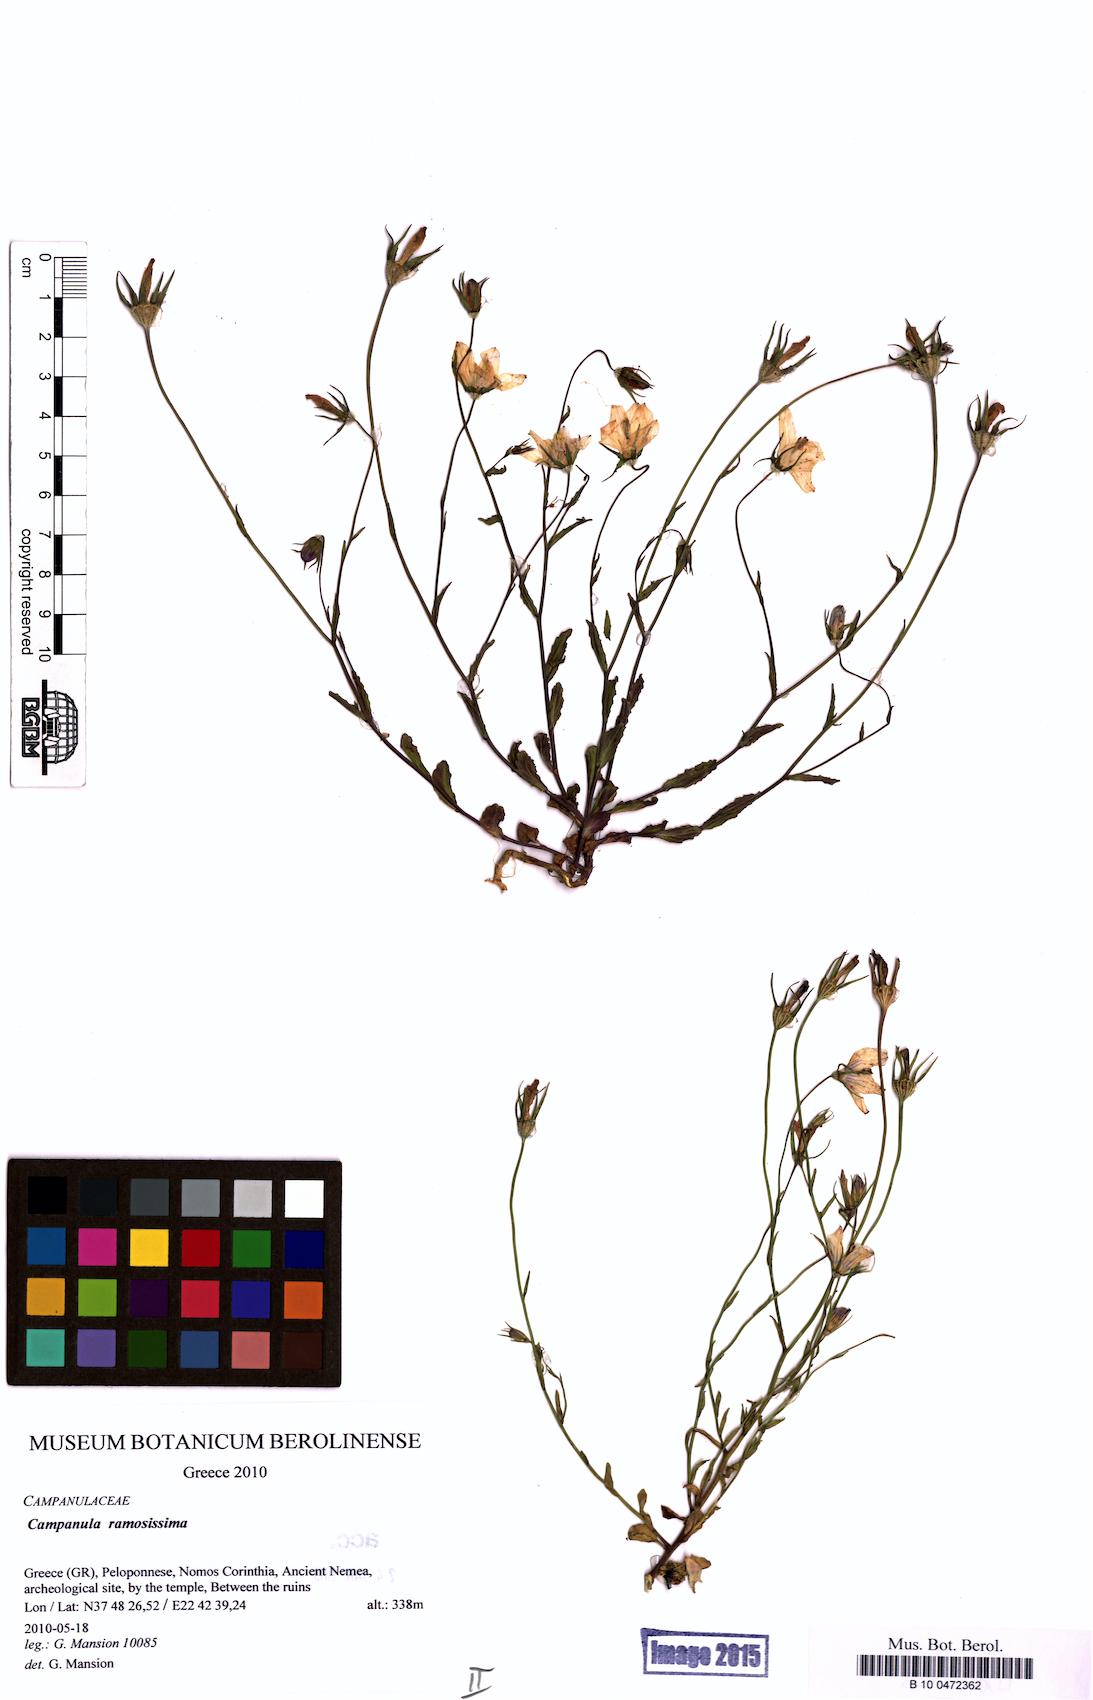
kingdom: Plantae
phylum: Tracheophyta
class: Magnoliopsida
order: Asterales
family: Campanulaceae
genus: Campanula
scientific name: Campanula ramosissima
